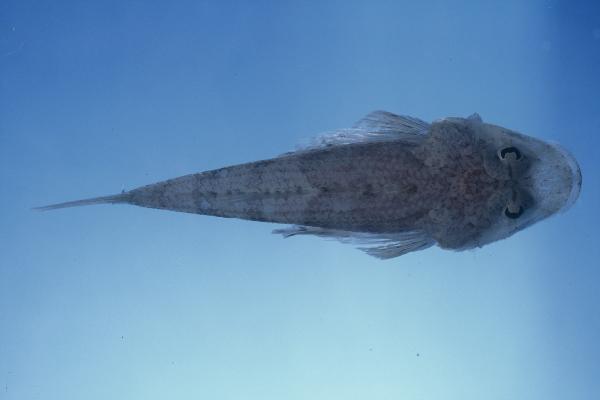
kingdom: Animalia
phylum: Chordata
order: Scorpaeniformes
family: Platycephalidae
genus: Onigocia
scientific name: Onigocia oligolepis
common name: Dwarf flathead
